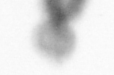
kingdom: Animalia
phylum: Arthropoda
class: Copepoda
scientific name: Copepoda
